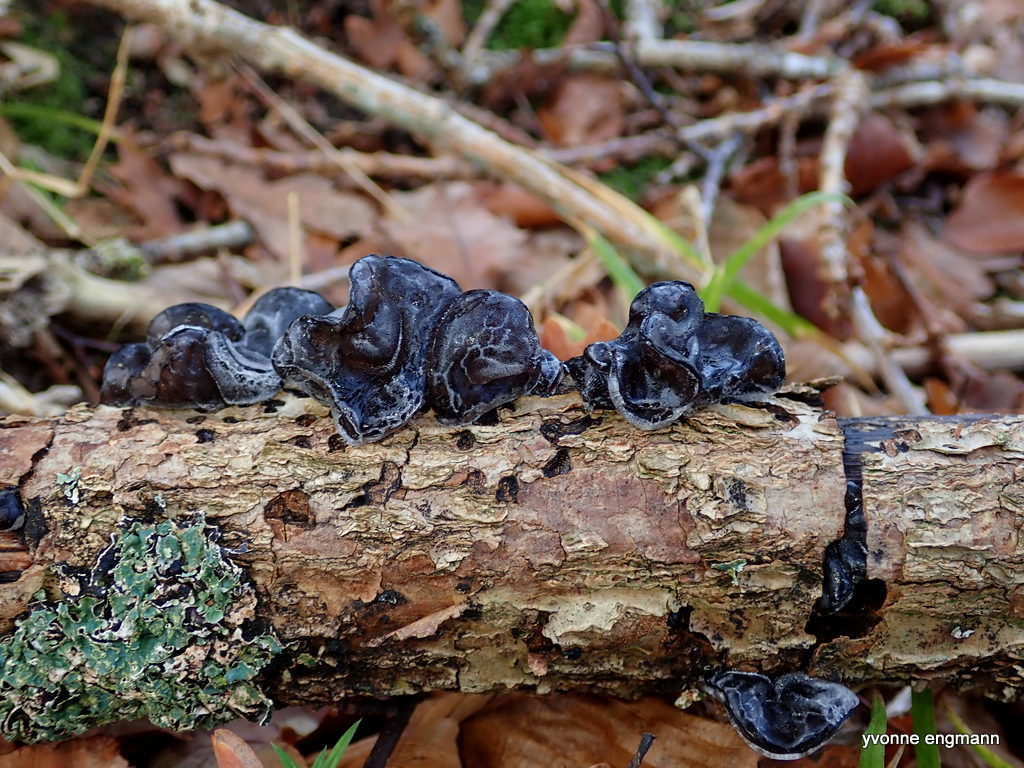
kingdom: Fungi
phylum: Basidiomycota
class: Agaricomycetes
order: Auriculariales
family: Auriculariaceae
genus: Exidia
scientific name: Exidia glandulosa
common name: ege-bævretop
